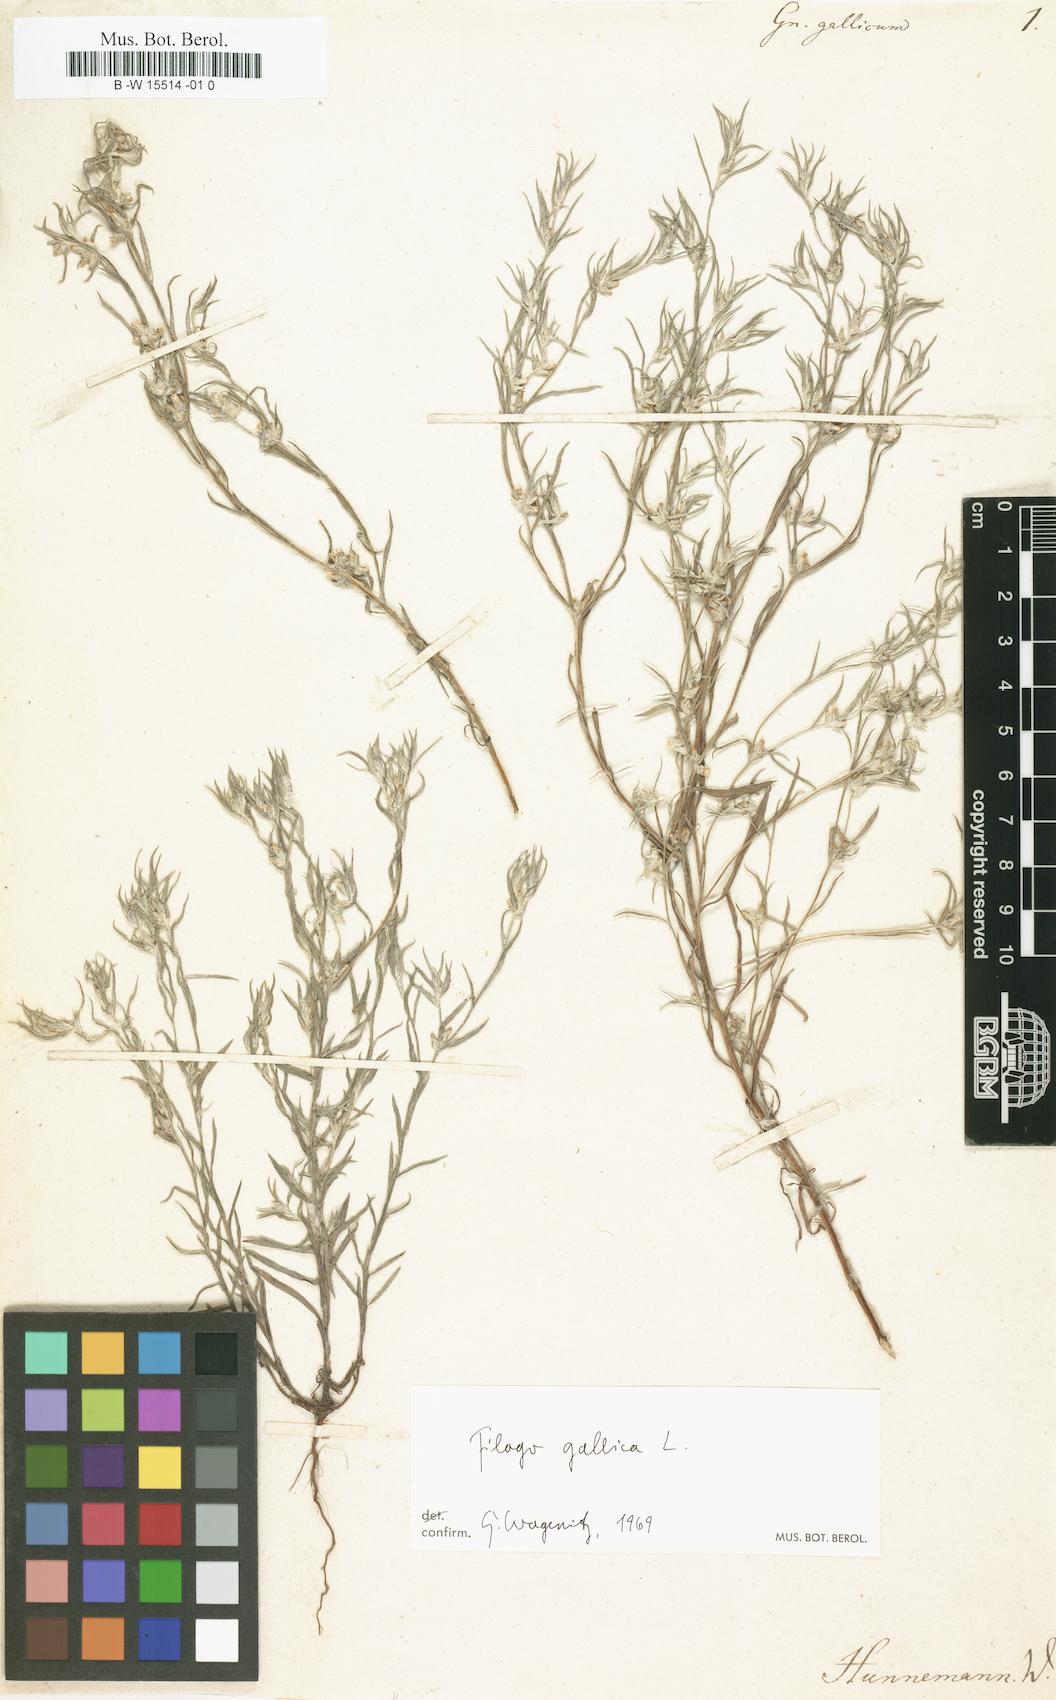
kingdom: Plantae
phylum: Tracheophyta
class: Magnoliopsida
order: Asterales
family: Asteraceae
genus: Logfia
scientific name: Logfia gallica
